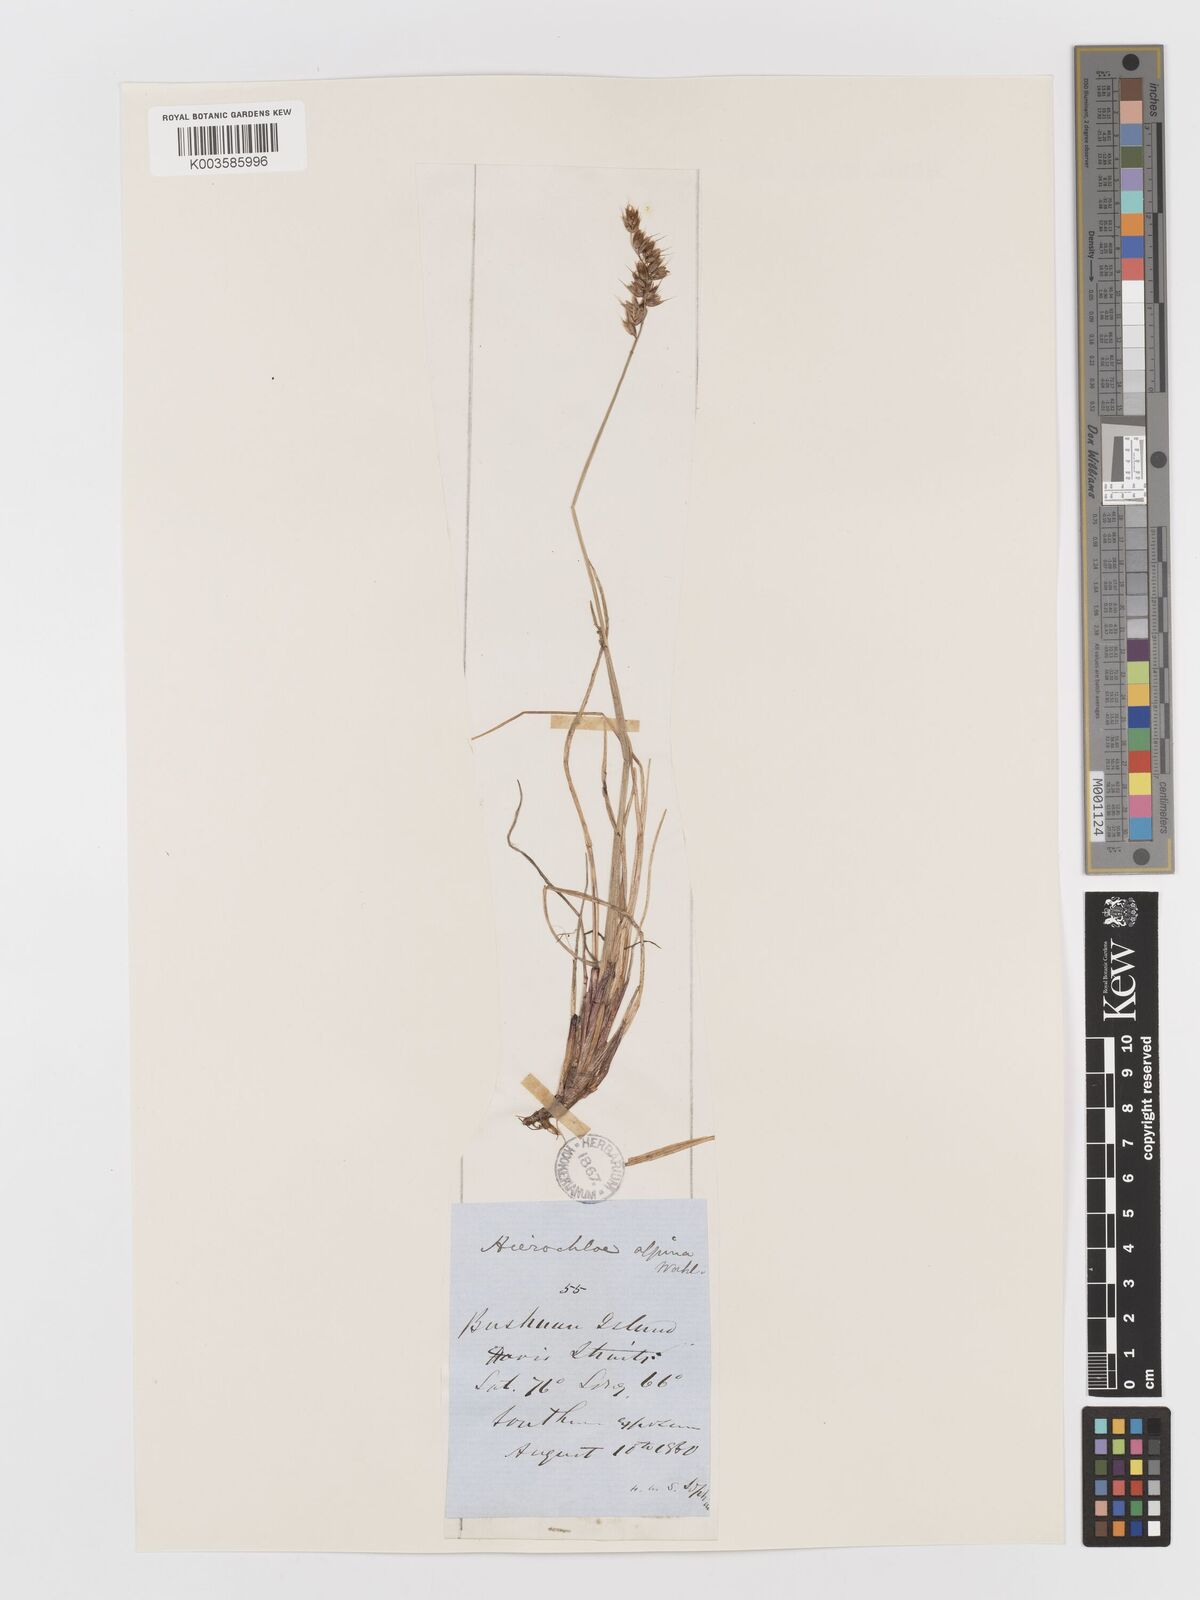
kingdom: Plantae
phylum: Tracheophyta
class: Liliopsida
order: Poales
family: Poaceae
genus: Anthoxanthum
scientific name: Anthoxanthum monticola
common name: Alpine sweetgrass
